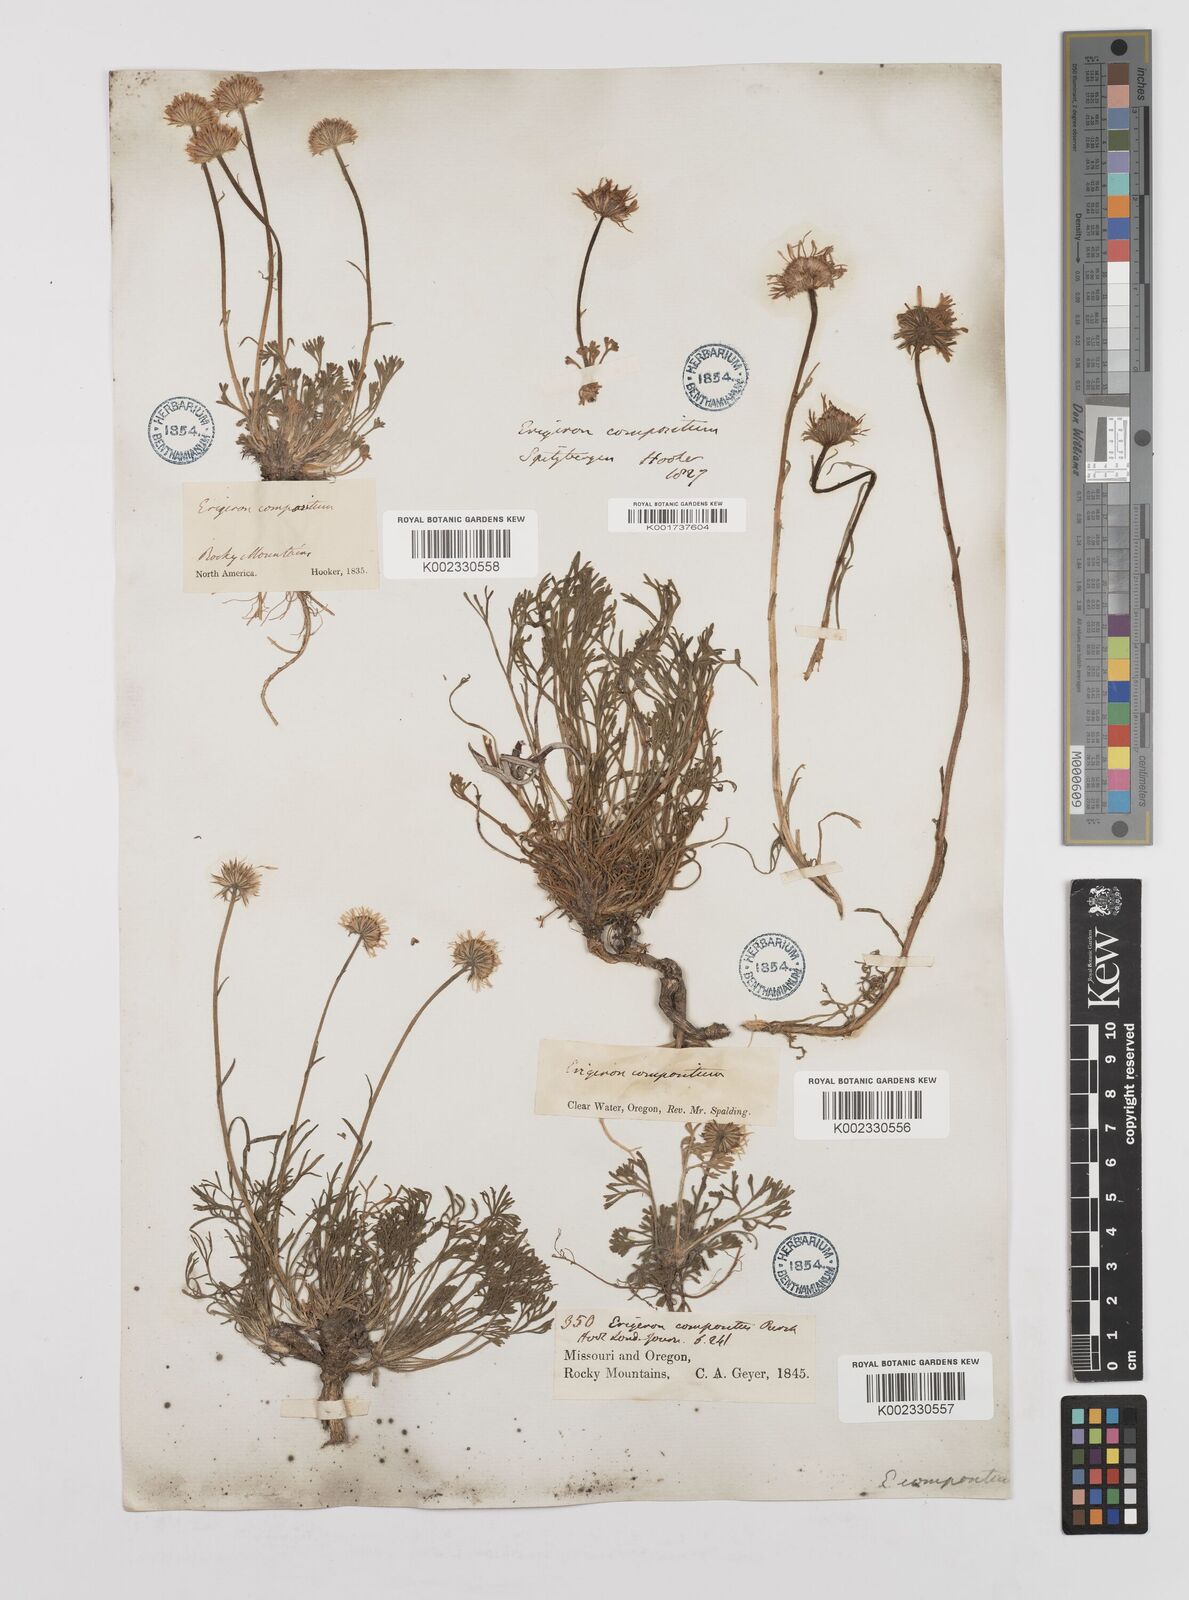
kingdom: Plantae
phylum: Tracheophyta
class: Magnoliopsida
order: Asterales
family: Asteraceae
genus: Erigeron
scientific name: Erigeron compositus
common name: Dwarf mountain fleabane
